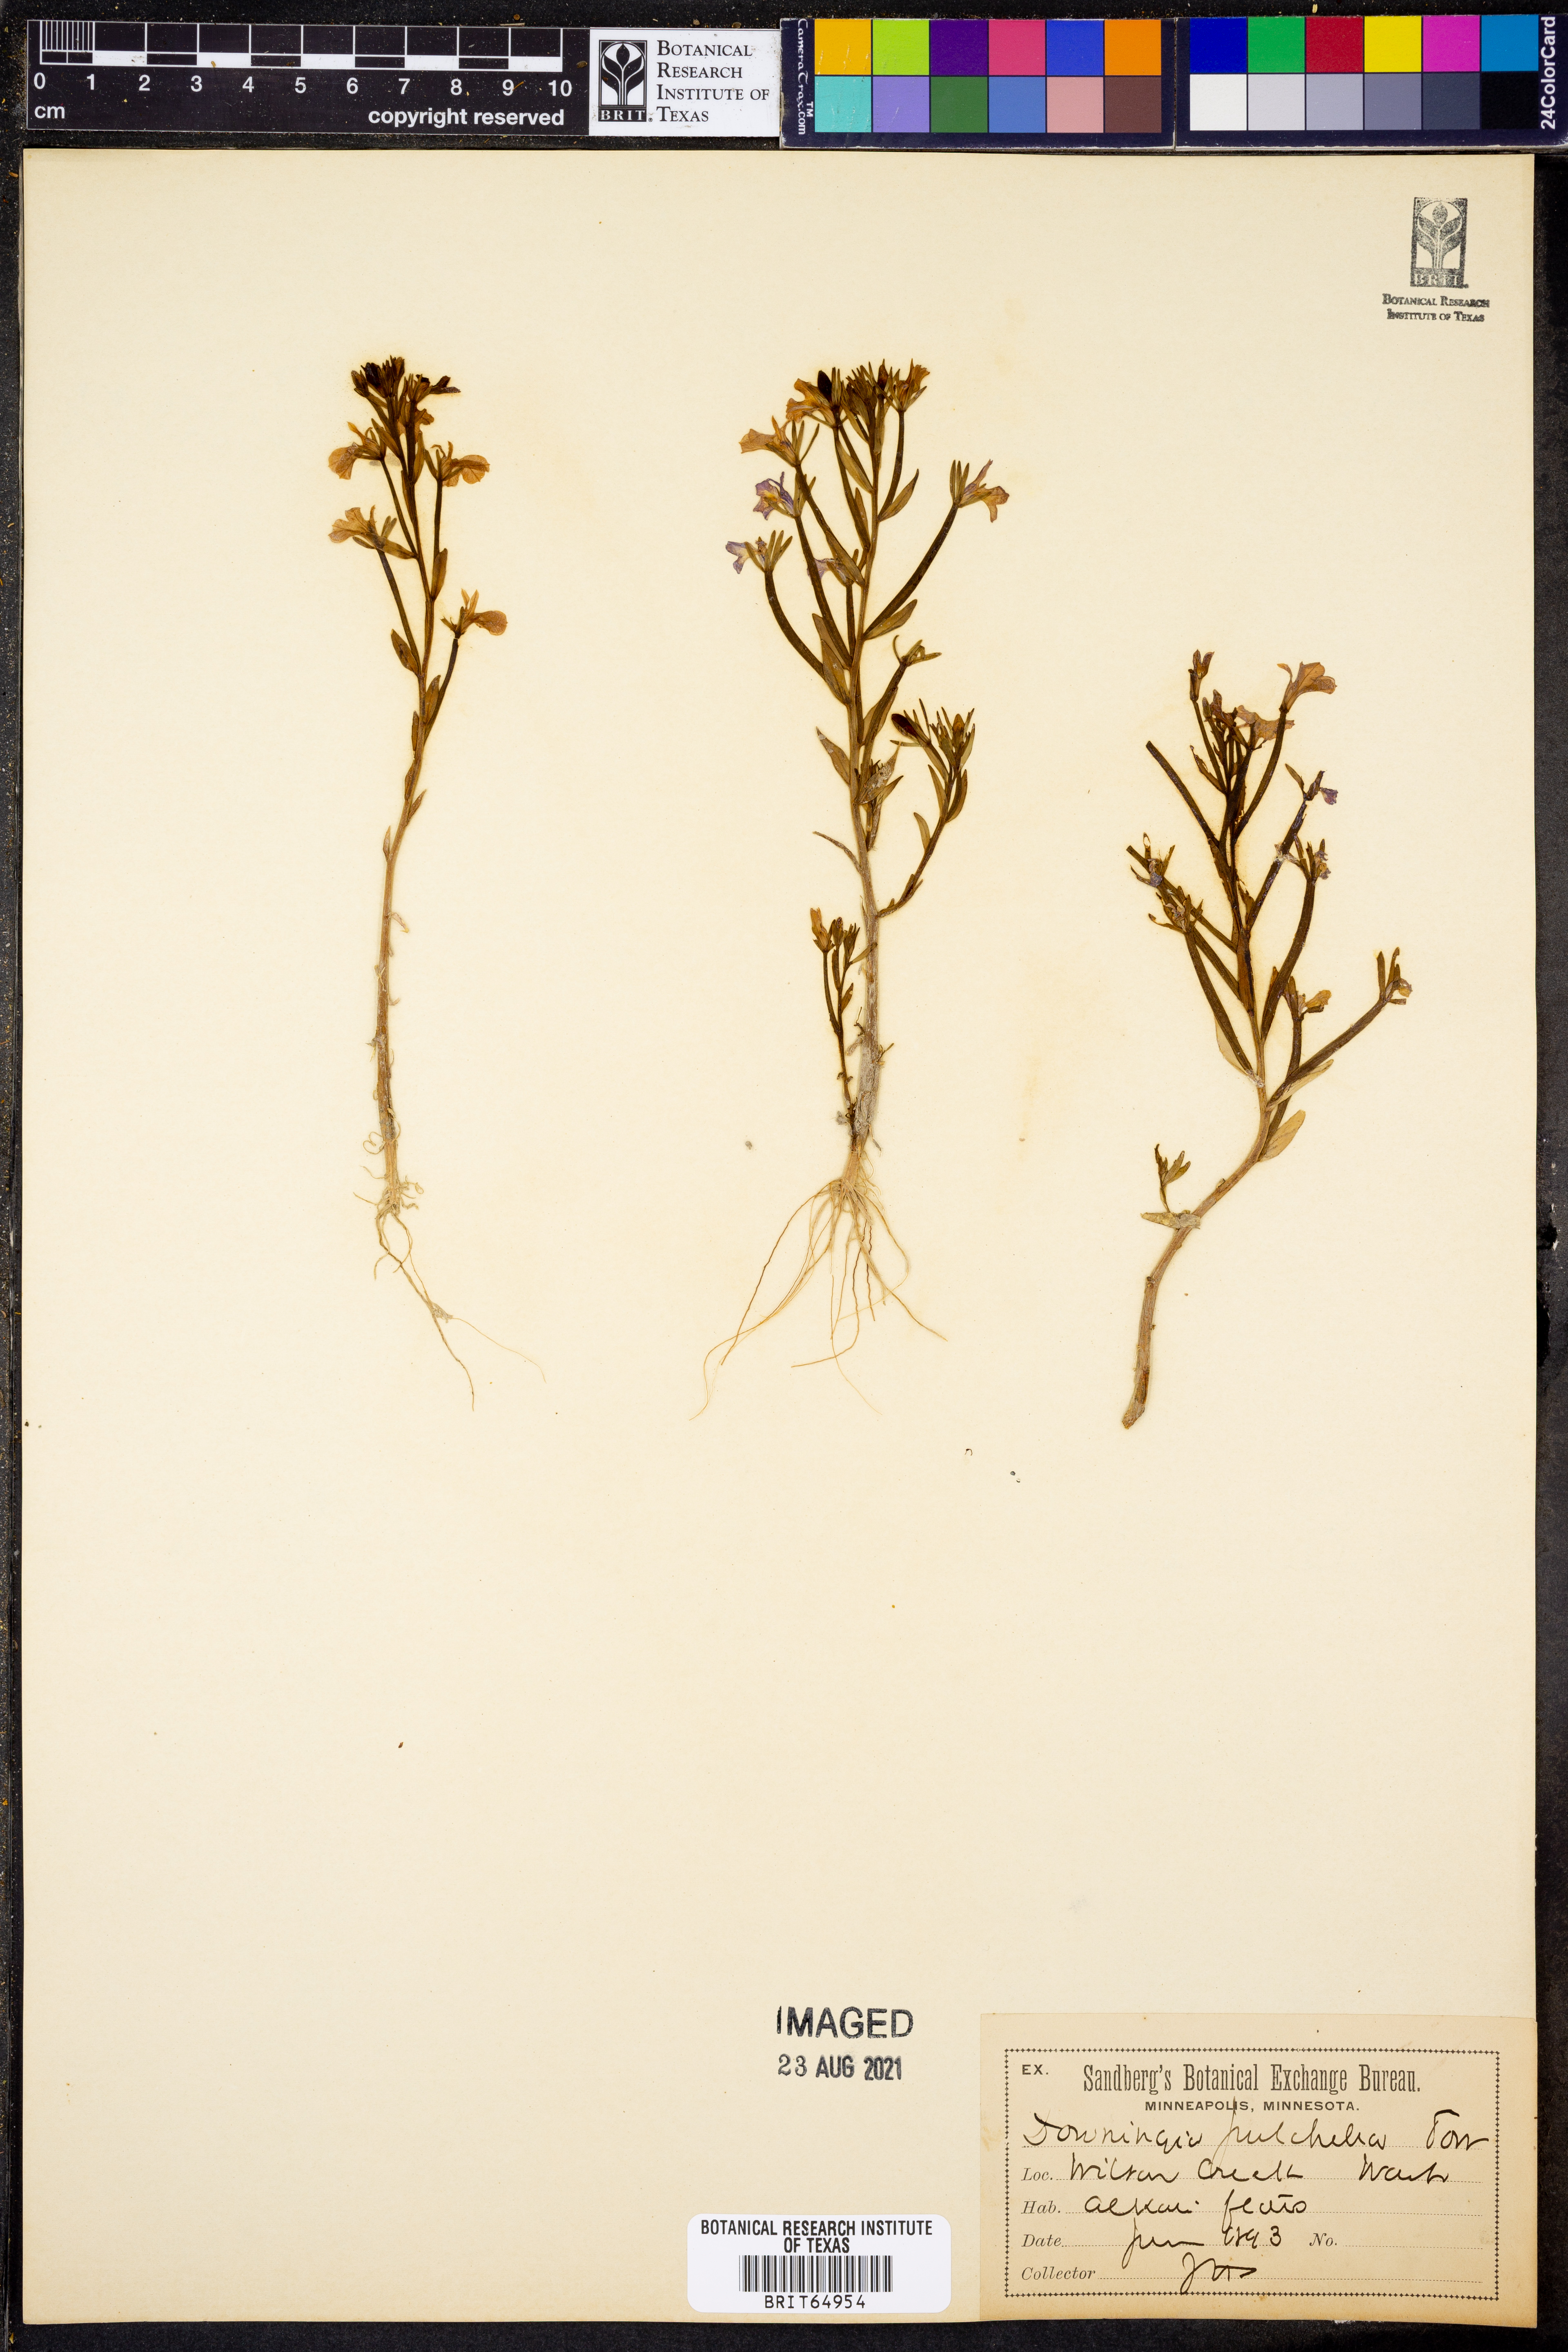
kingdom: Plantae
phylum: Tracheophyta
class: Magnoliopsida
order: Asterales
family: Campanulaceae
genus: Downingia
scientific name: Downingia pulchella
